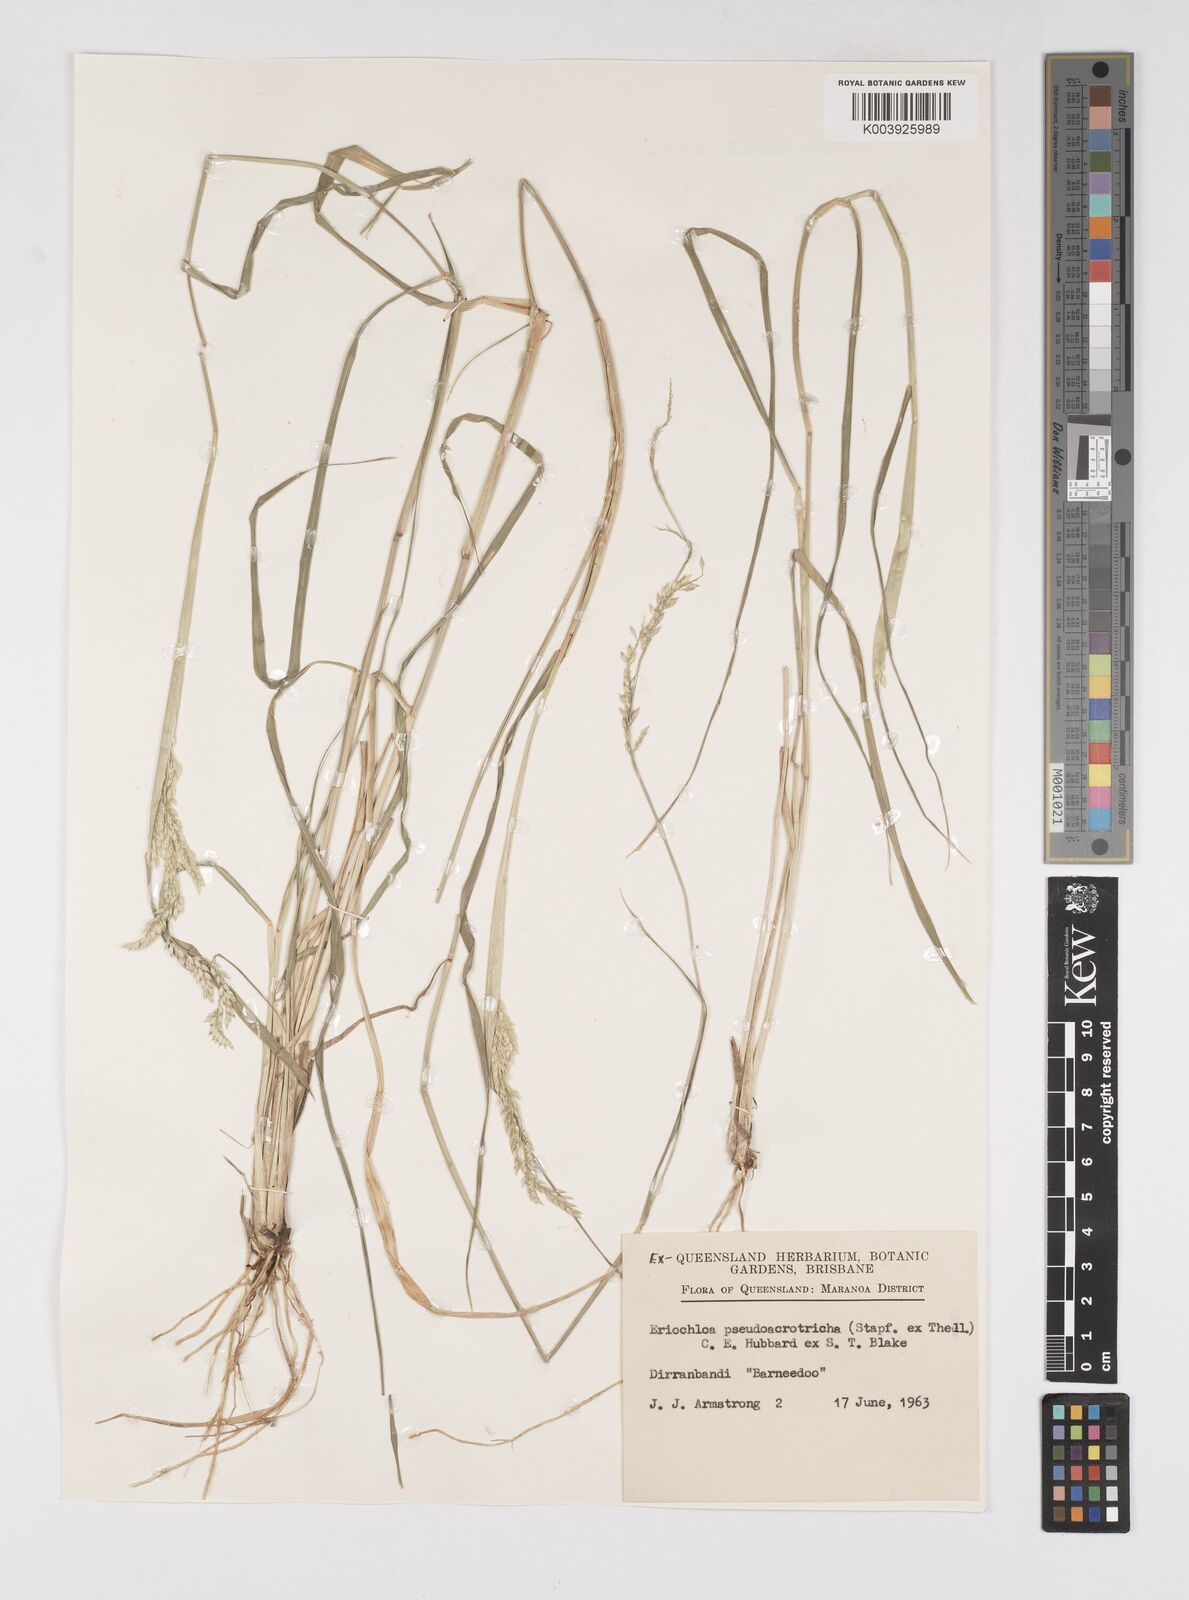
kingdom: Plantae
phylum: Tracheophyta
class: Liliopsida
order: Poales
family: Poaceae
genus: Eriochloa
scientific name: Eriochloa pseudoacrotricha
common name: Perennial cup-grass
